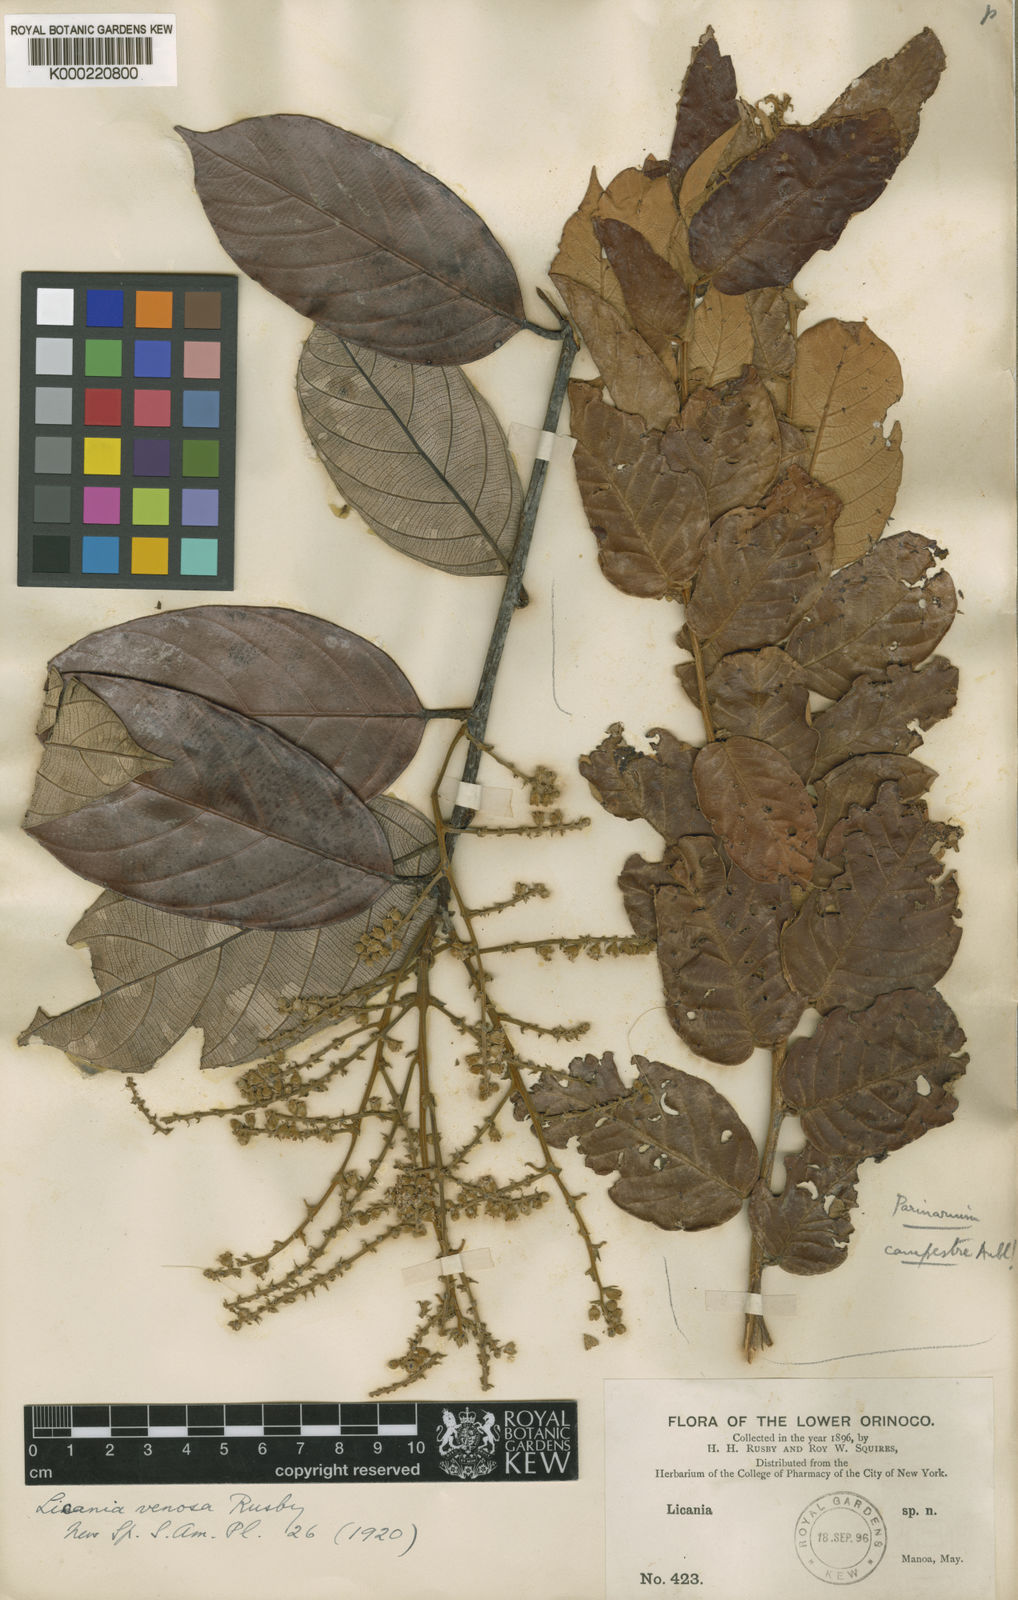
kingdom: Plantae
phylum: Tracheophyta
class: Magnoliopsida
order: Malpighiales
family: Chrysobalanaceae
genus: Licania
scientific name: Licania alba
